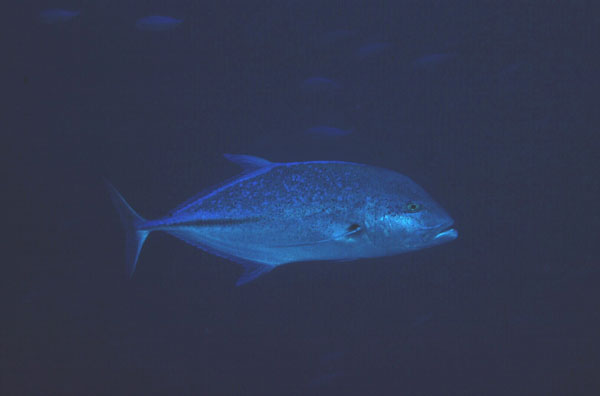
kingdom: Animalia
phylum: Chordata
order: Perciformes
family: Carangidae
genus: Caranx
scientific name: Caranx melampygus
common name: Bluefin trevally
